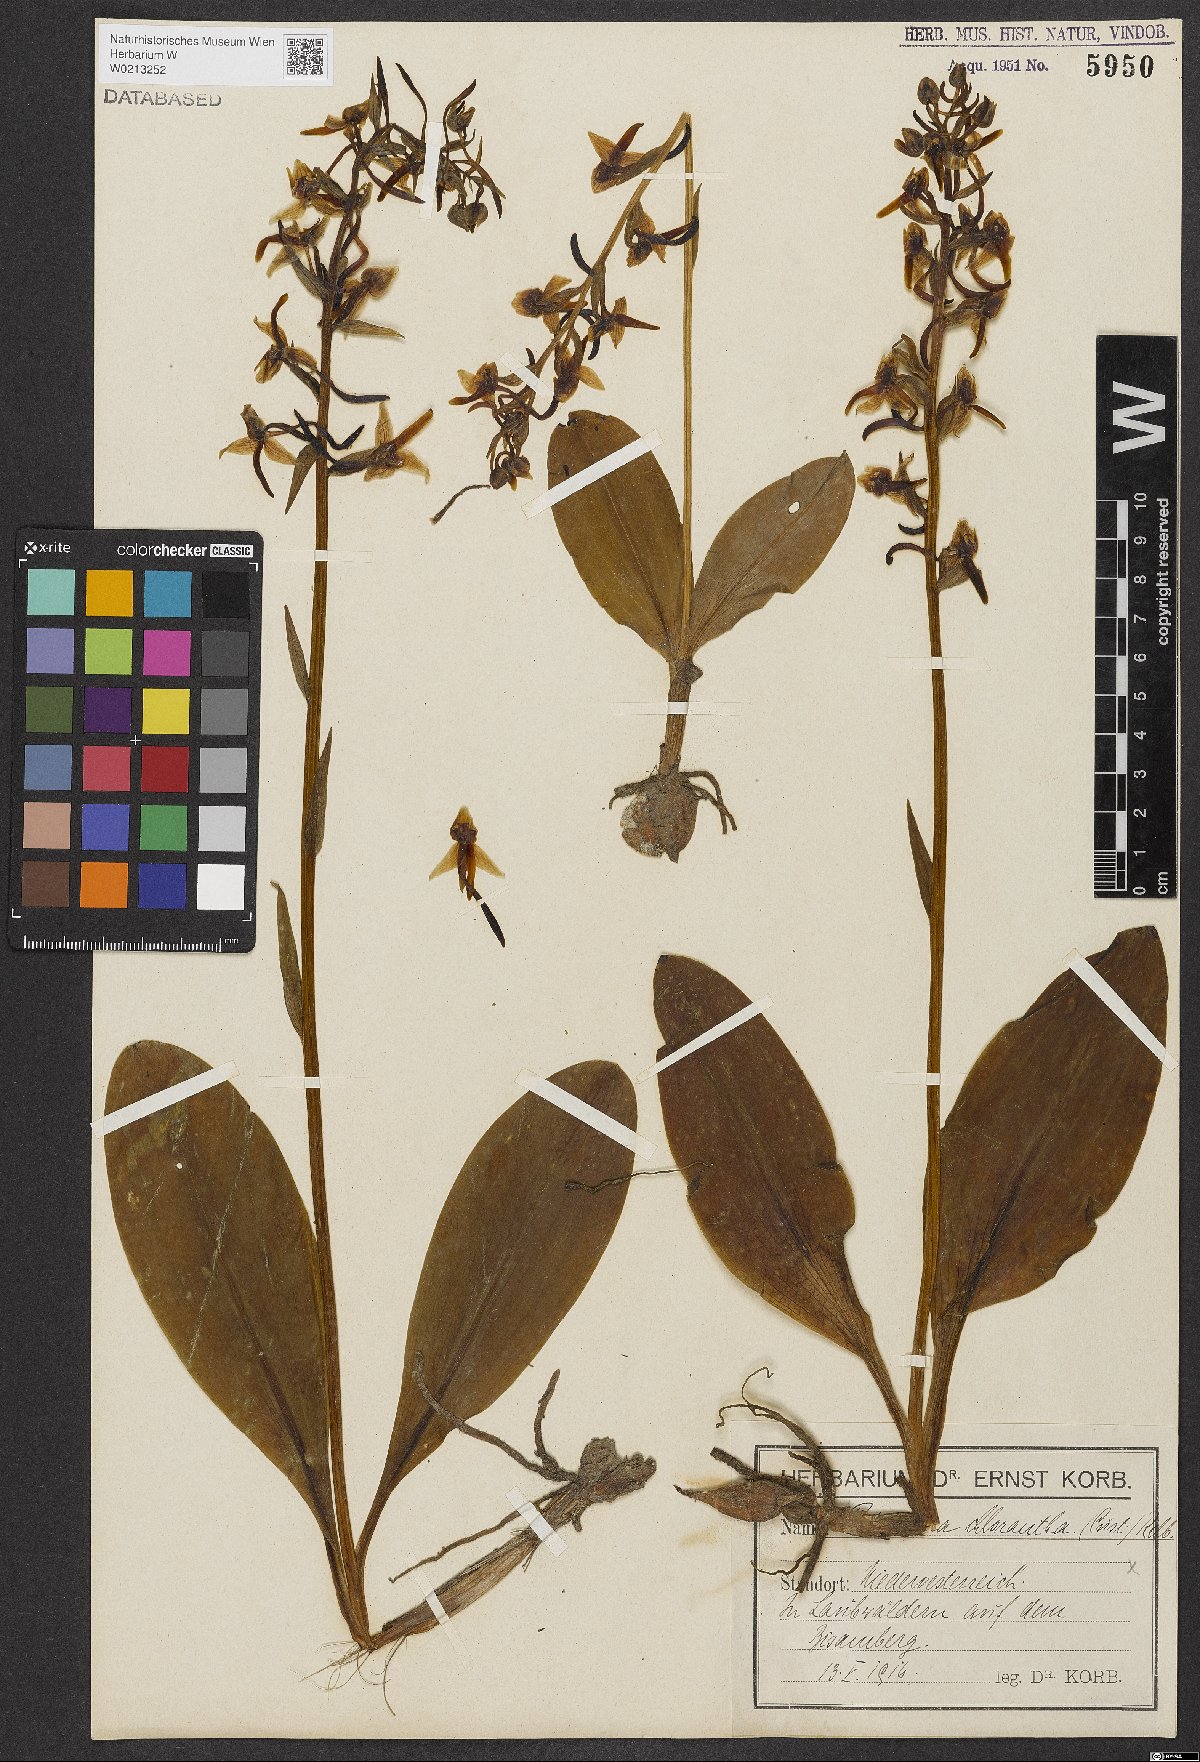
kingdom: Plantae
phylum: Tracheophyta
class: Liliopsida
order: Asparagales
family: Orchidaceae
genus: Platanthera
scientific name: Platanthera chlorantha
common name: Greater butterfly-orchid
